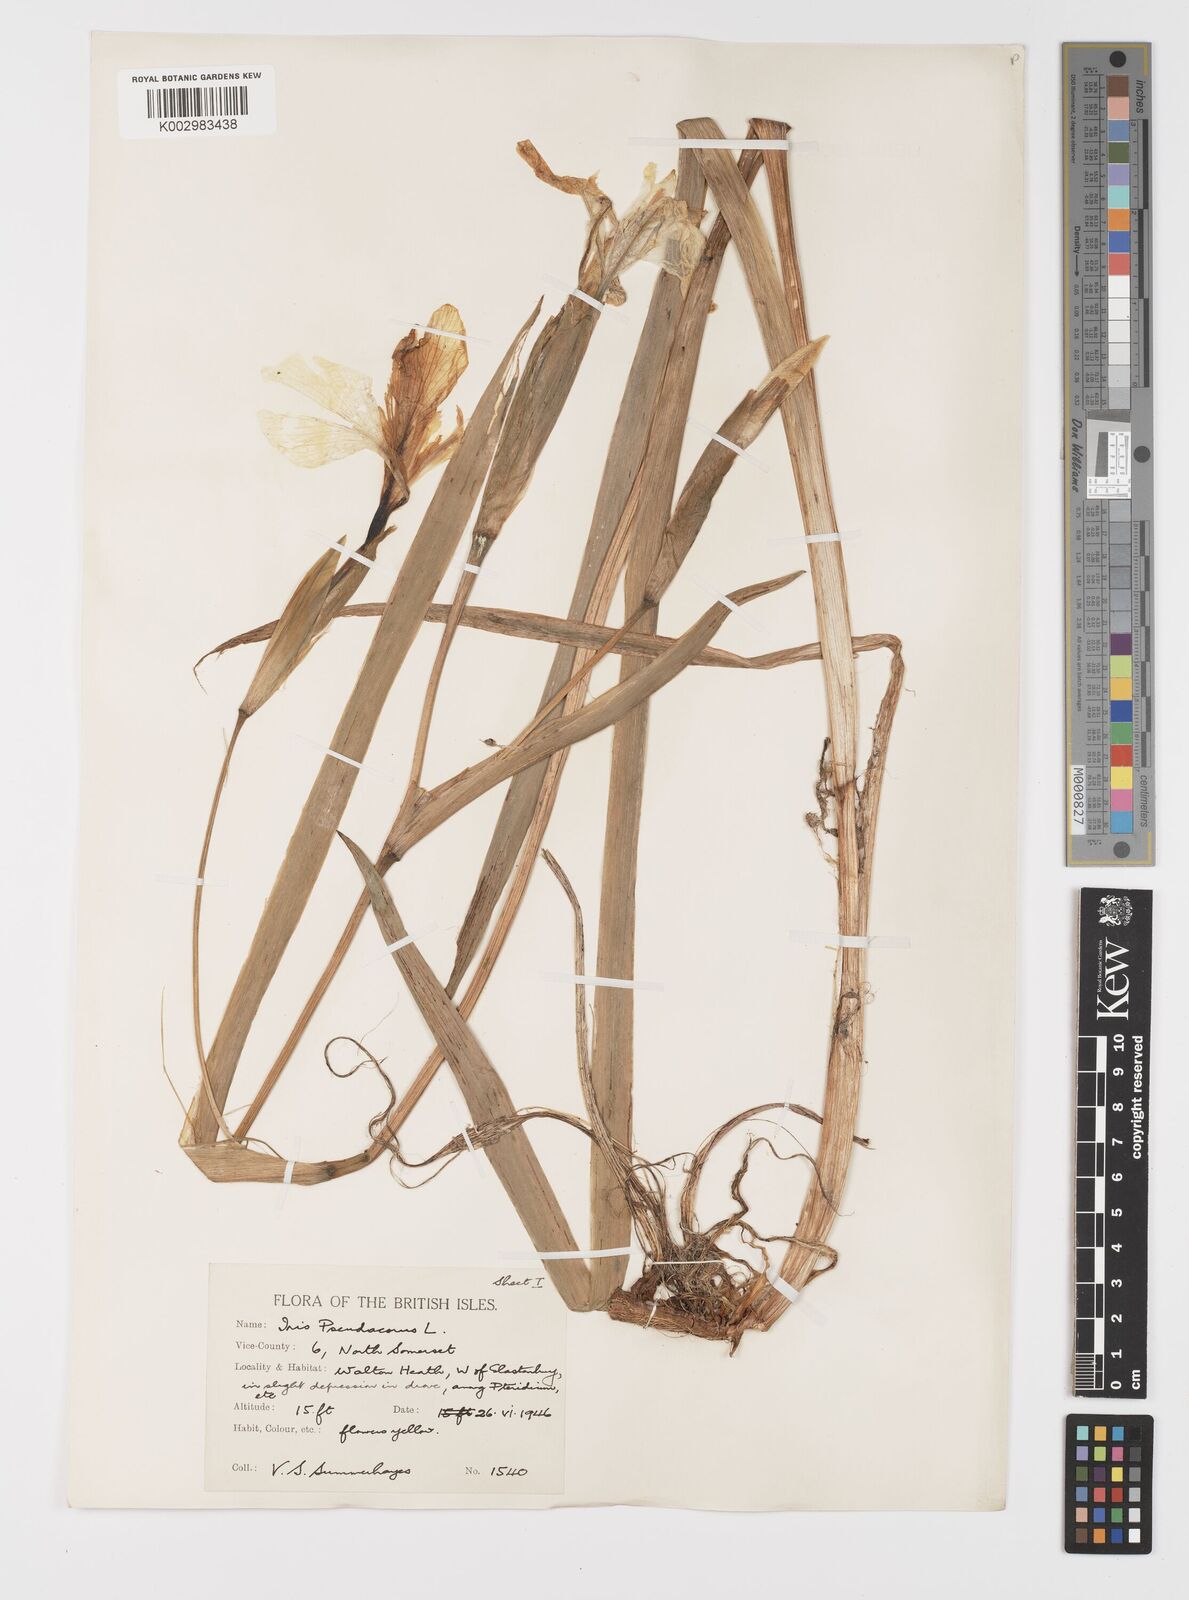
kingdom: Plantae
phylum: Tracheophyta
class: Liliopsida
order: Asparagales
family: Iridaceae
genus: Iris
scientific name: Iris pseudacorus
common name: Yellow flag
